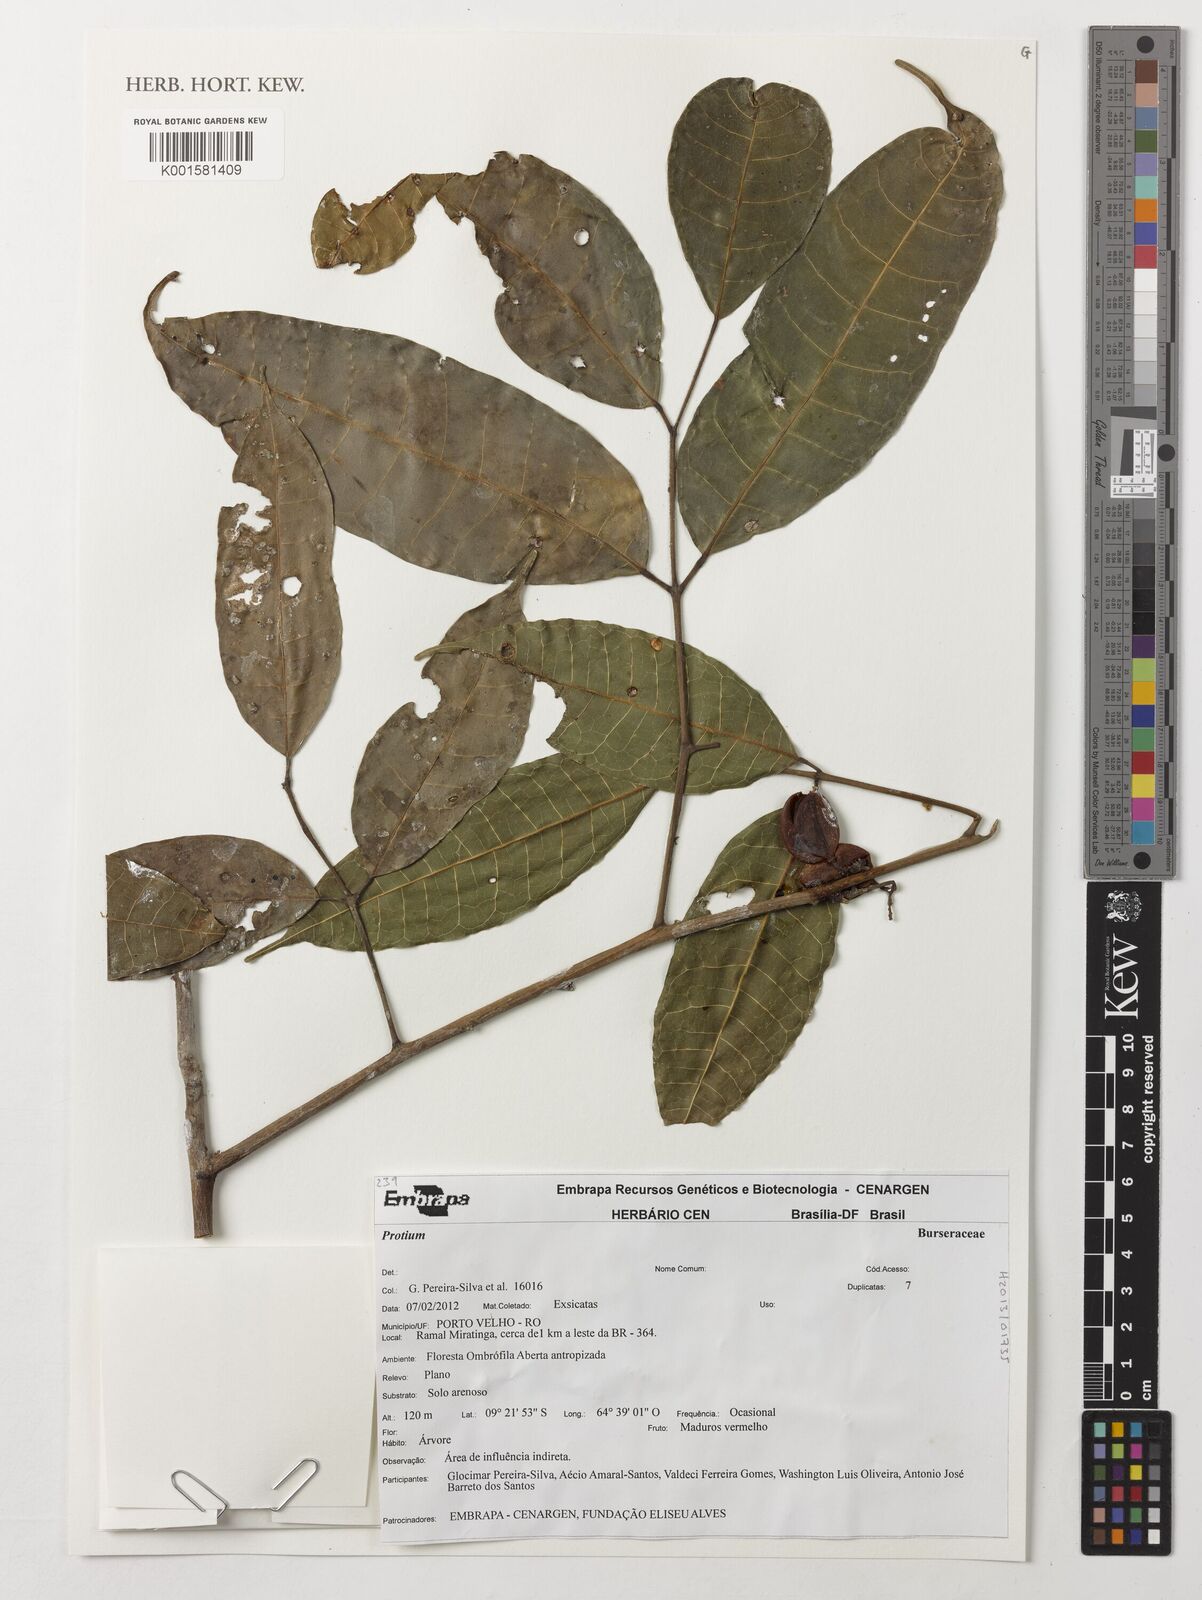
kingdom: Plantae
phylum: Tracheophyta
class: Magnoliopsida
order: Sapindales
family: Burseraceae
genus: Protium
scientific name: Protium
